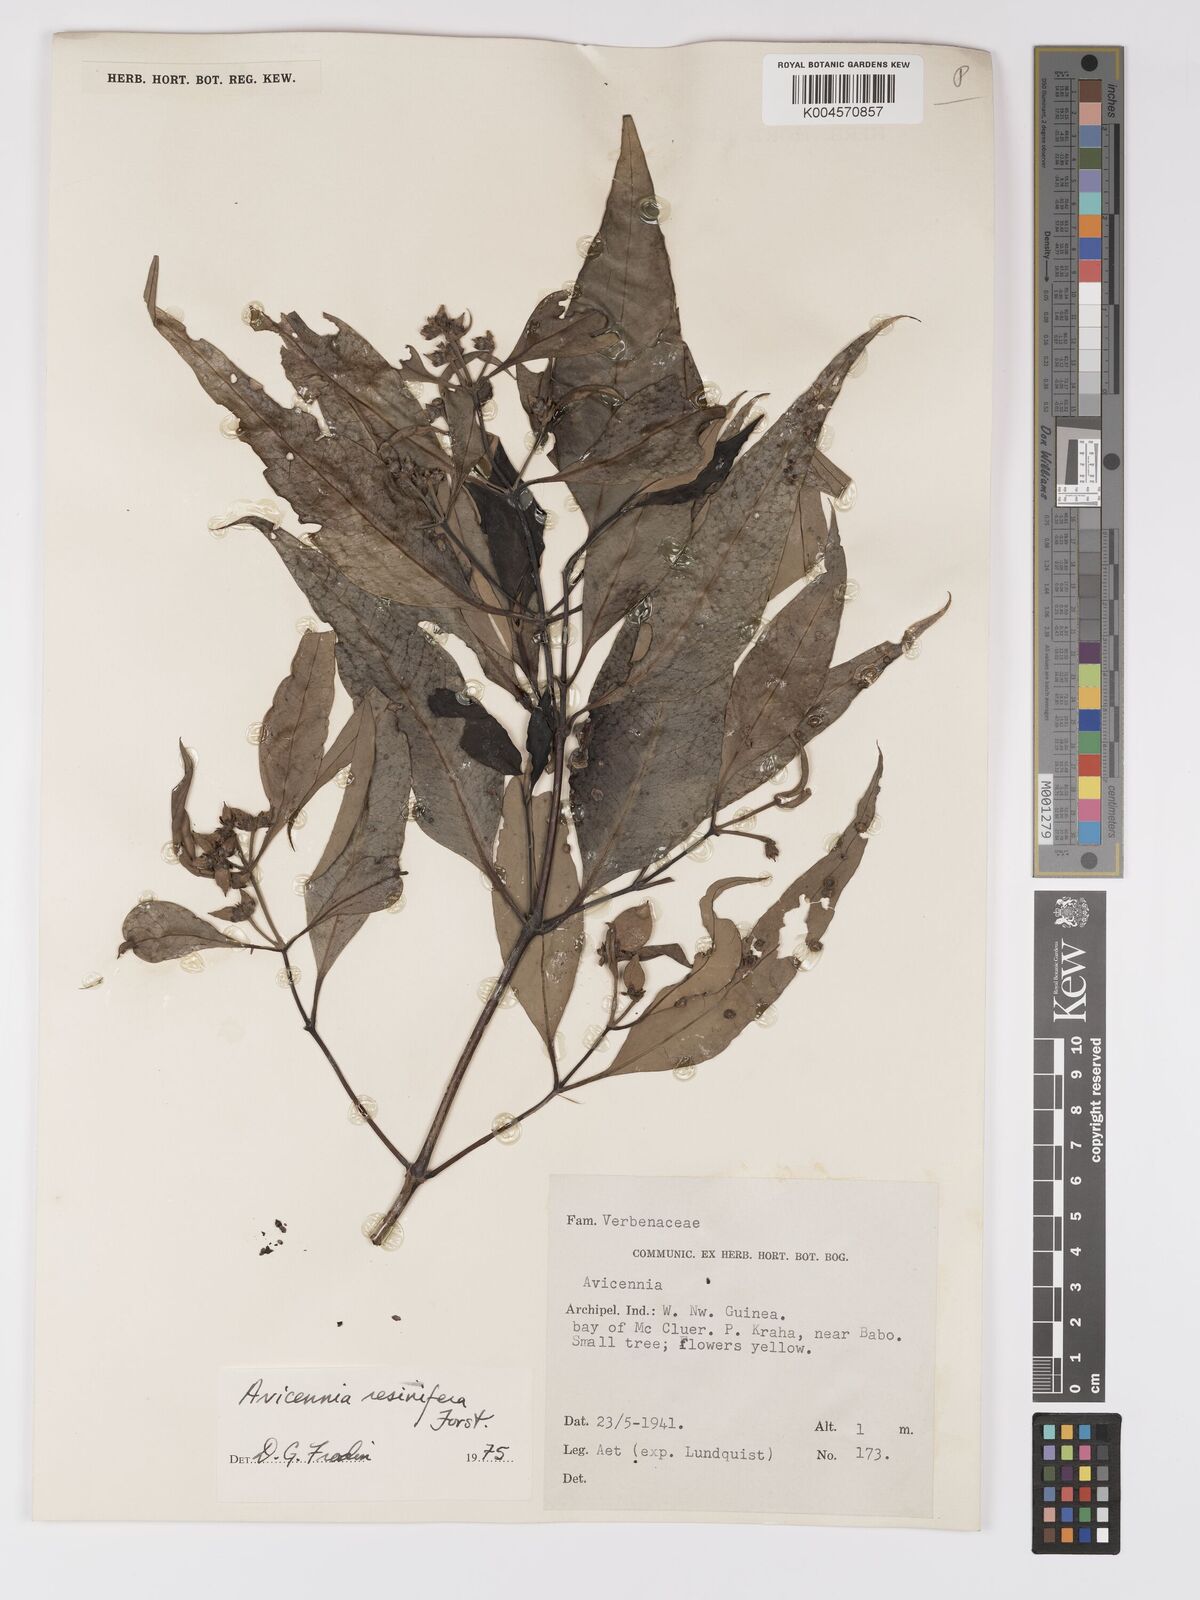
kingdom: Plantae
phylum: Tracheophyta
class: Magnoliopsida
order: Lamiales
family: Acanthaceae
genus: Avicennia
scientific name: Avicennia marina
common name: Gray mangrove
